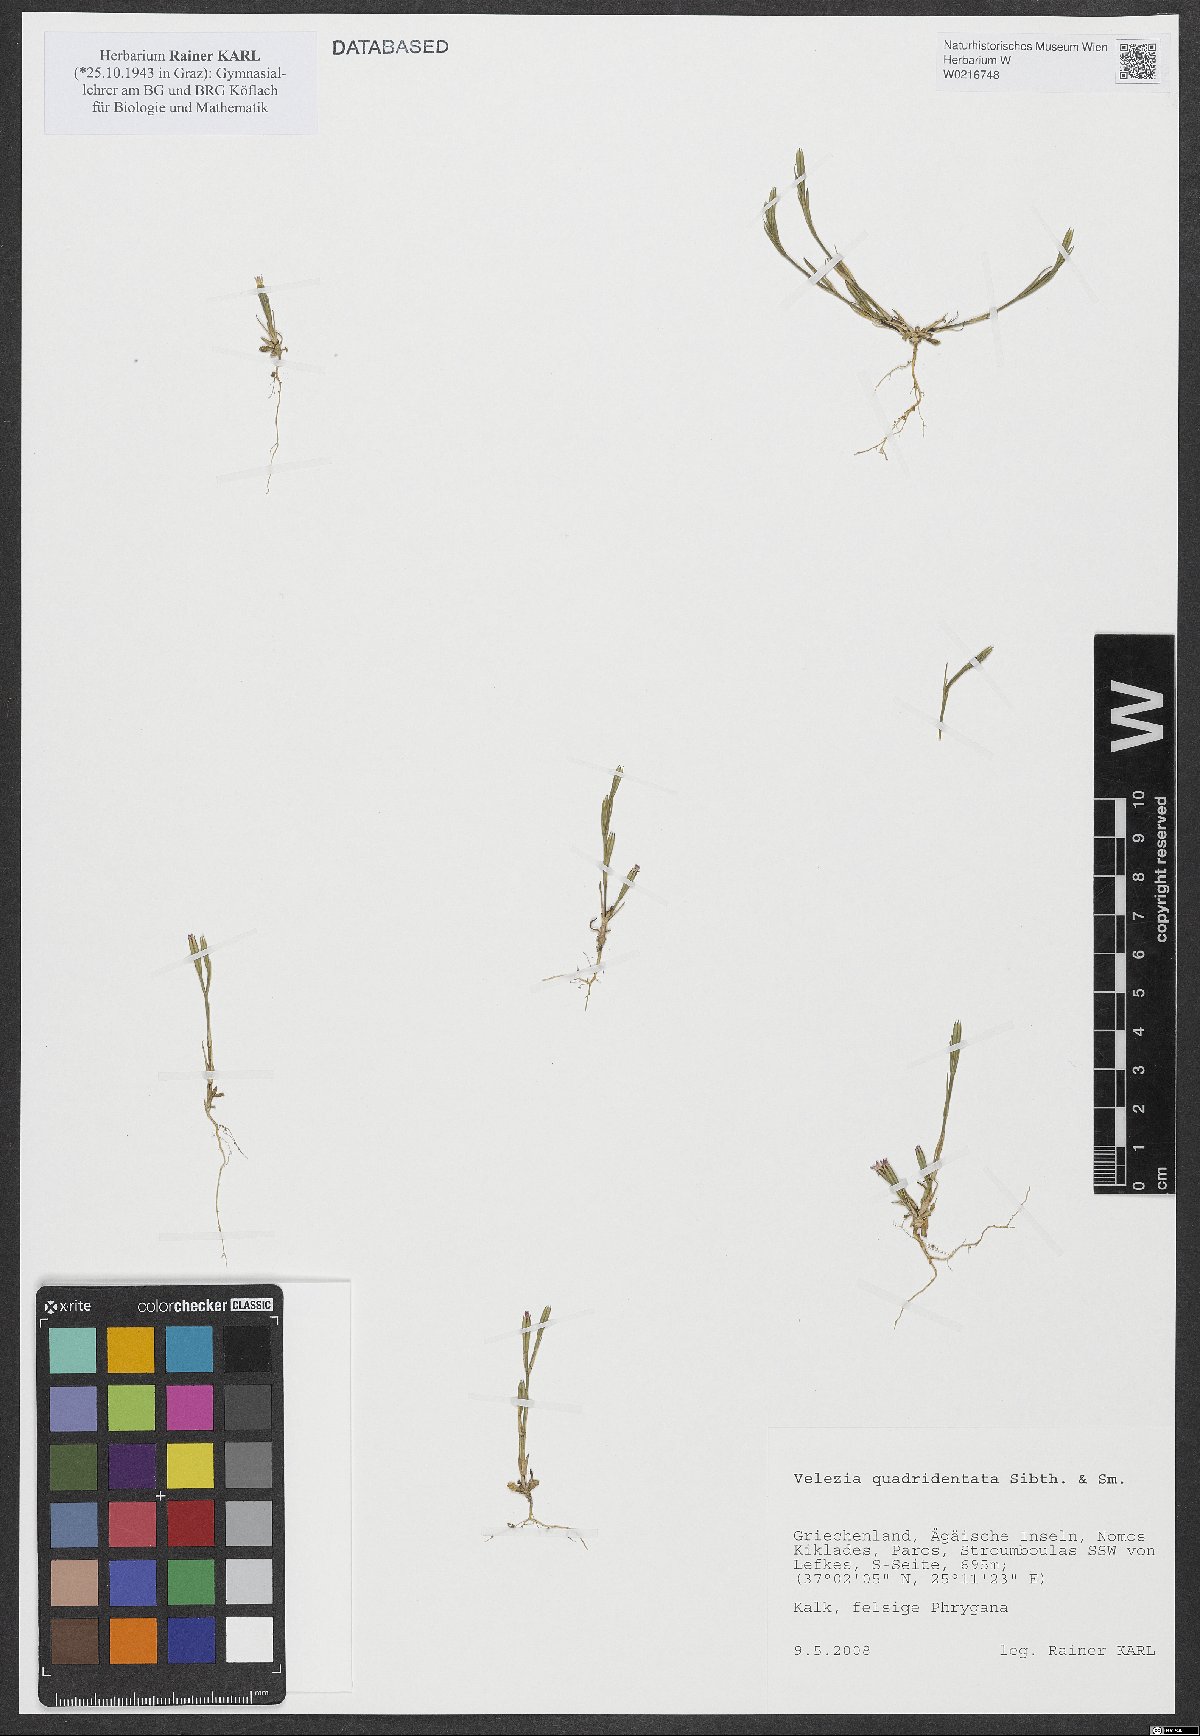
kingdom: Plantae
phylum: Tracheophyta
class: Magnoliopsida
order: Caryophyllales
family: Caryophyllaceae
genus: Dianthus
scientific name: Dianthus quadridentatus
